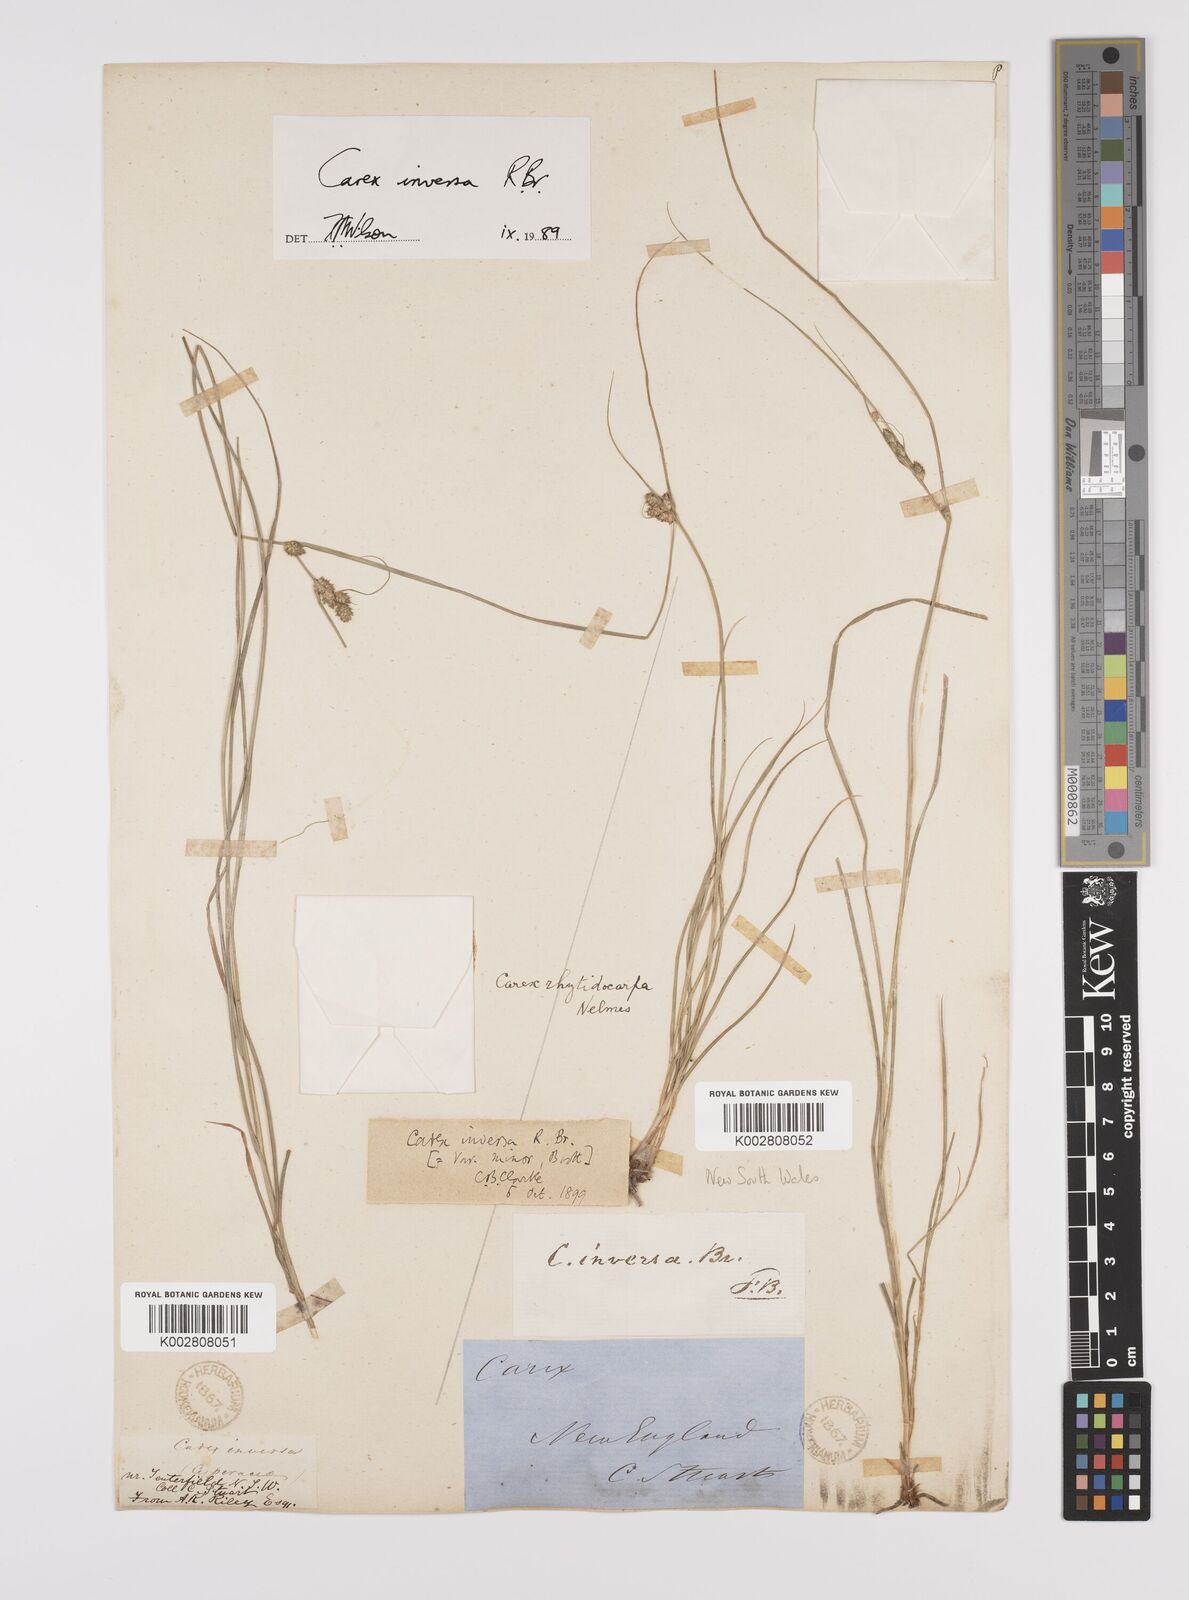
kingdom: Plantae
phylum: Tracheophyta
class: Liliopsida
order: Poales
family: Cyperaceae
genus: Carex
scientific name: Carex inversa
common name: Knob sedge
